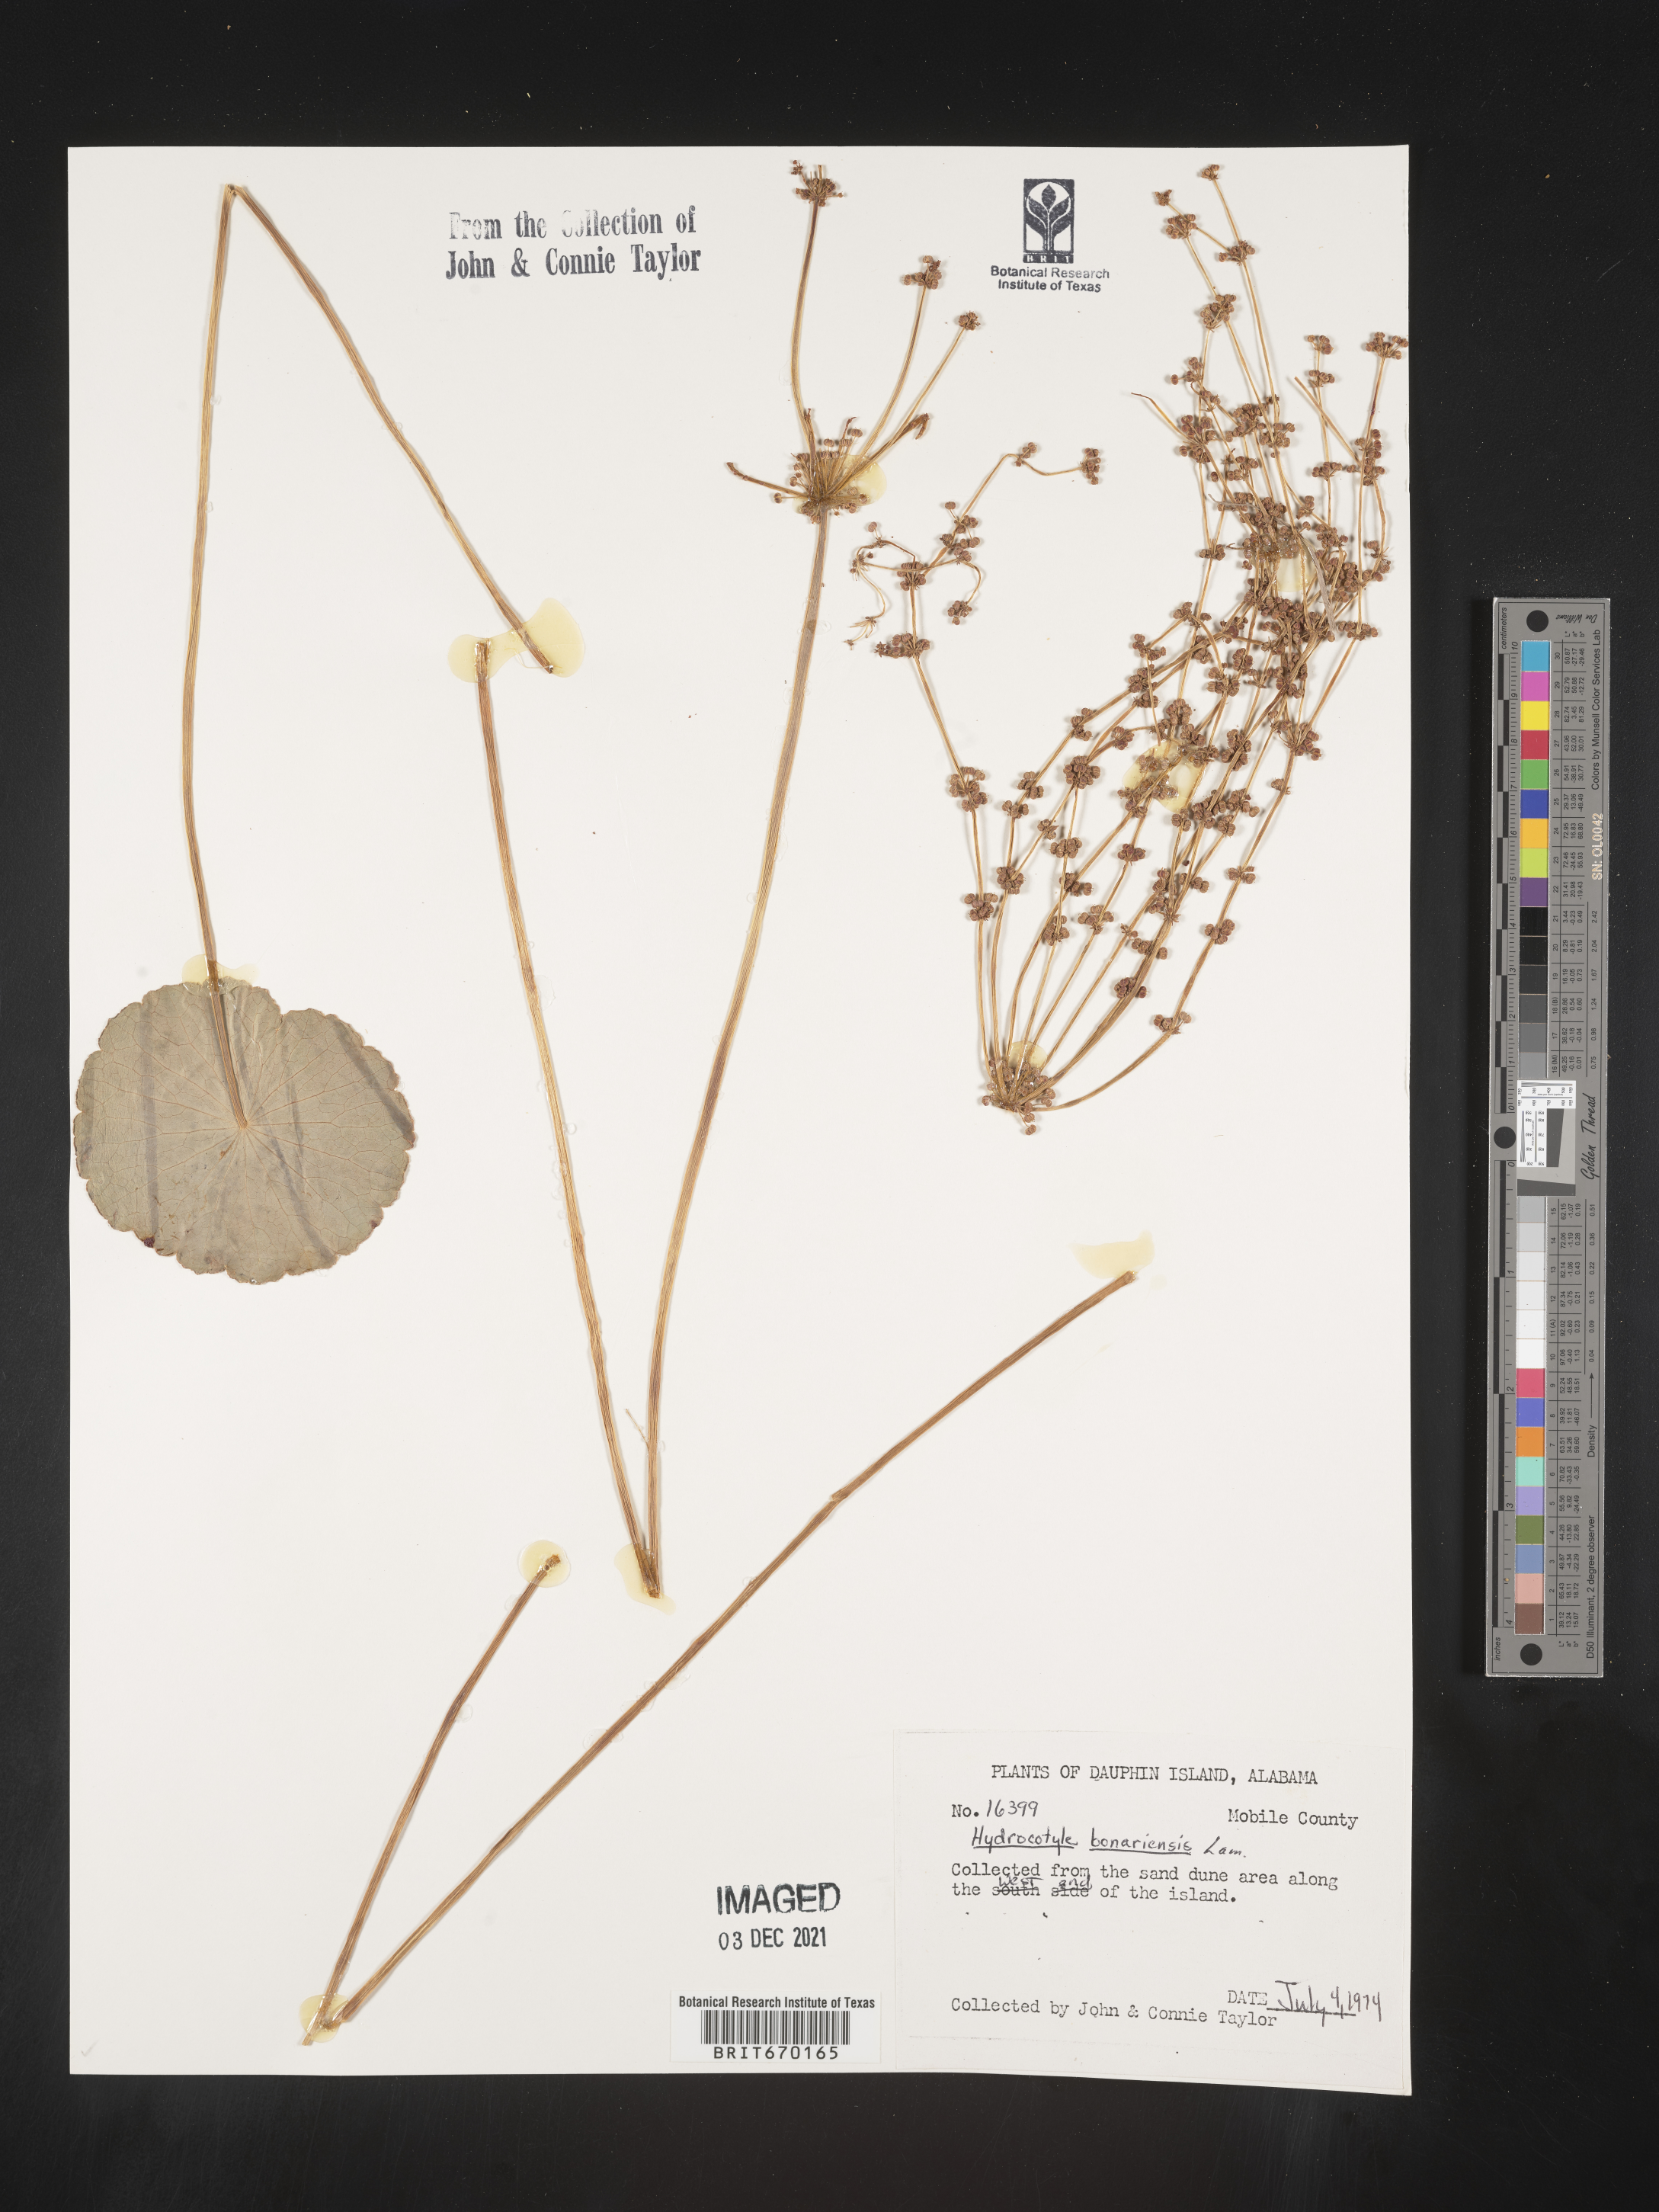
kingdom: Plantae
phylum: Tracheophyta
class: Magnoliopsida
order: Apiales
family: Araliaceae
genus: Hydrocotyle
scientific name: Hydrocotyle bonariensis
